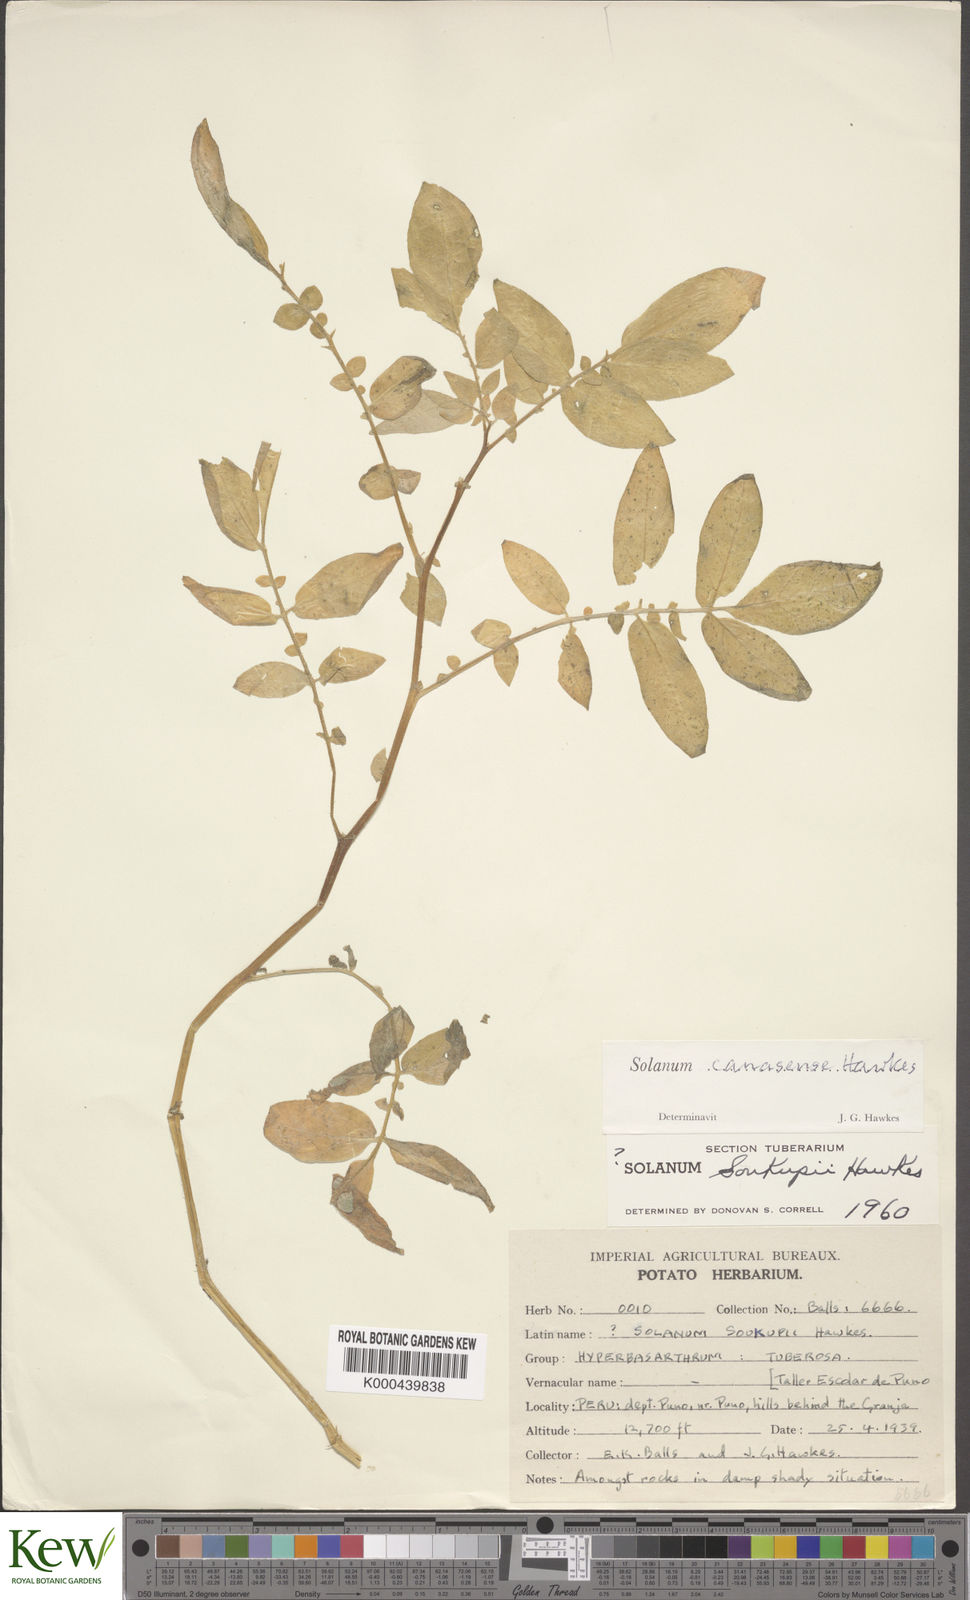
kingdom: Plantae
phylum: Tracheophyta
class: Magnoliopsida
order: Solanales
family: Solanaceae
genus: Solanum
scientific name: Solanum candolleanum
